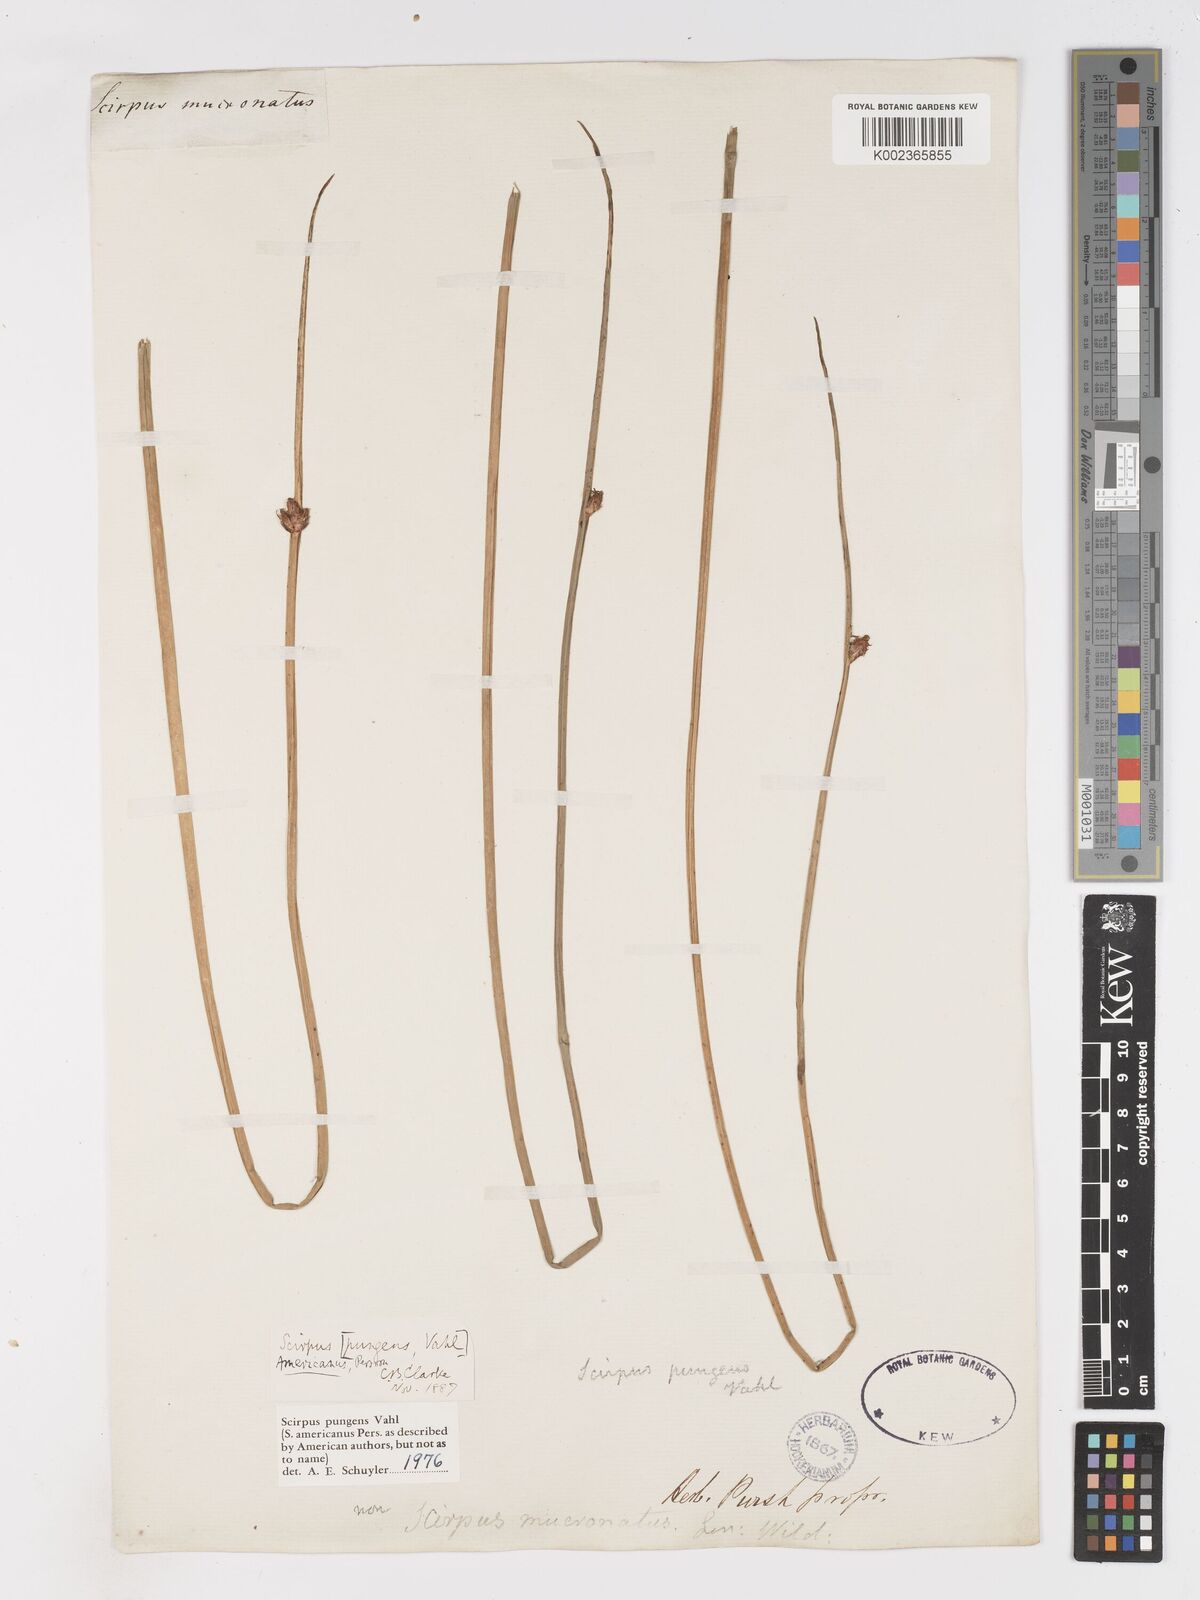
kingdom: Plantae
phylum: Tracheophyta
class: Liliopsida
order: Poales
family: Cyperaceae
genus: Schoenoplectus
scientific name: Schoenoplectus pungens
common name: Sharp club-rush
